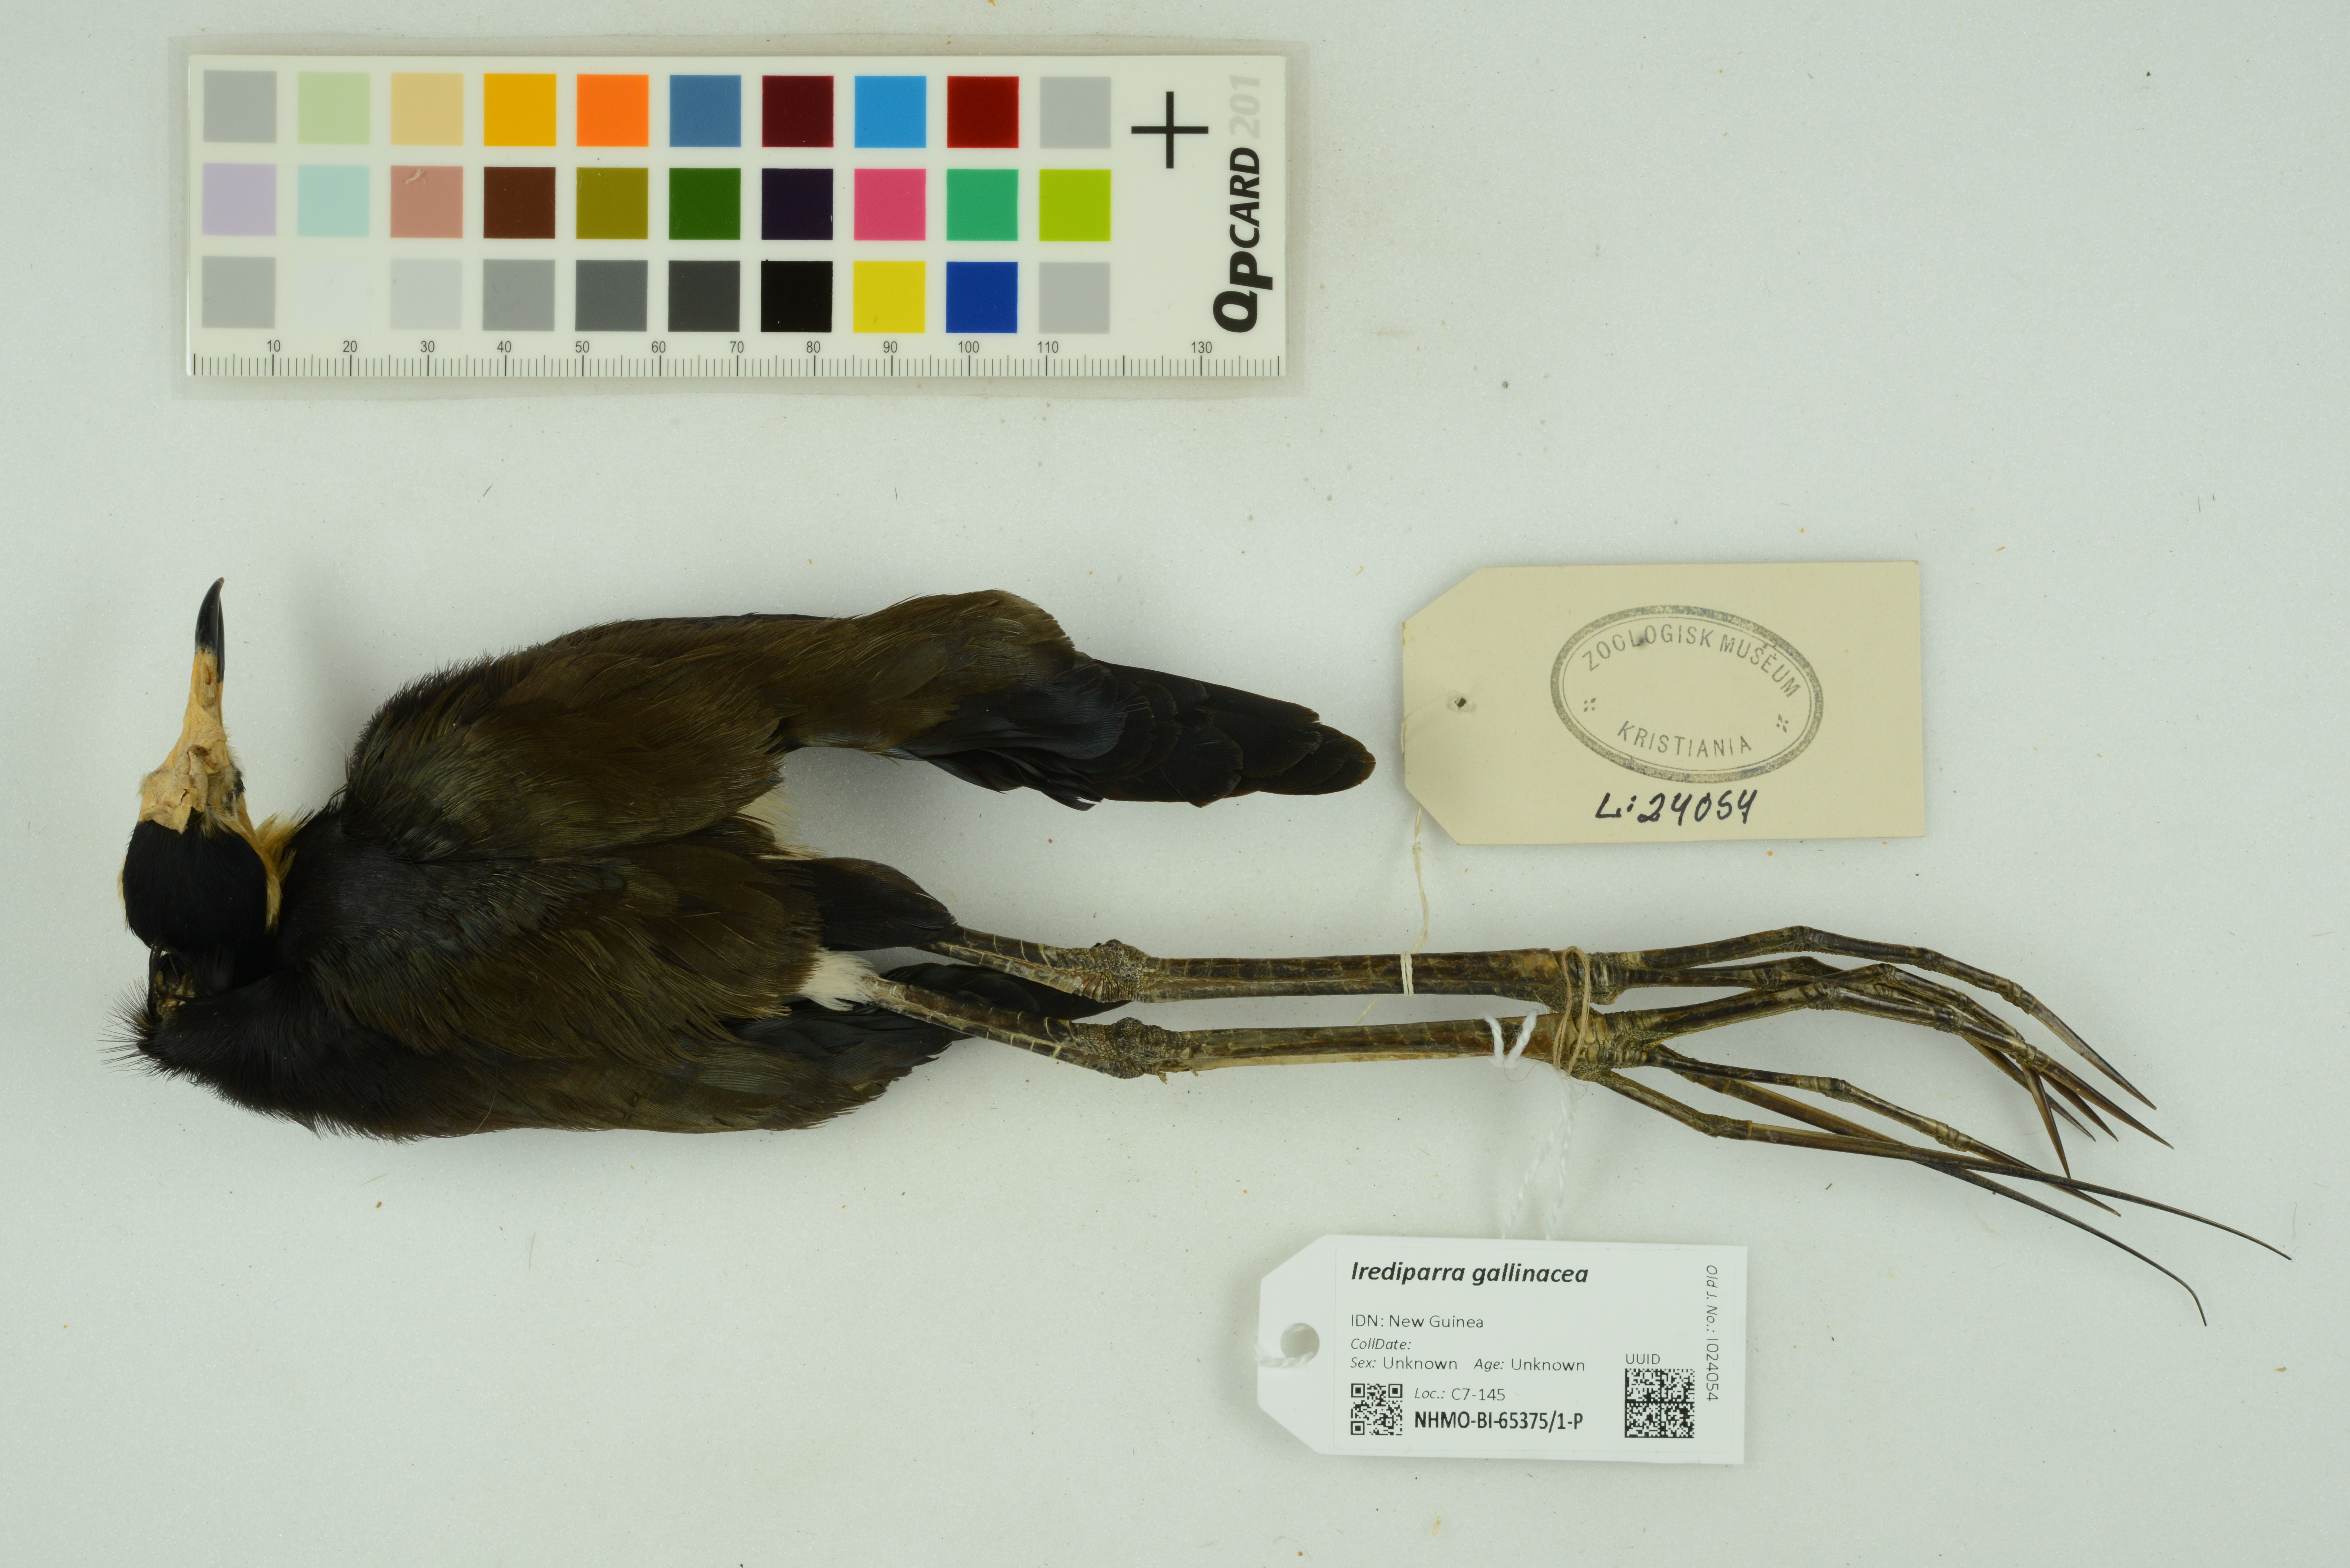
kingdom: Animalia
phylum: Chordata
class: Aves
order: Charadriiformes
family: Jacanidae
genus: Irediparra
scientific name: Irediparra gallinacea
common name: Comb-crested jacana
